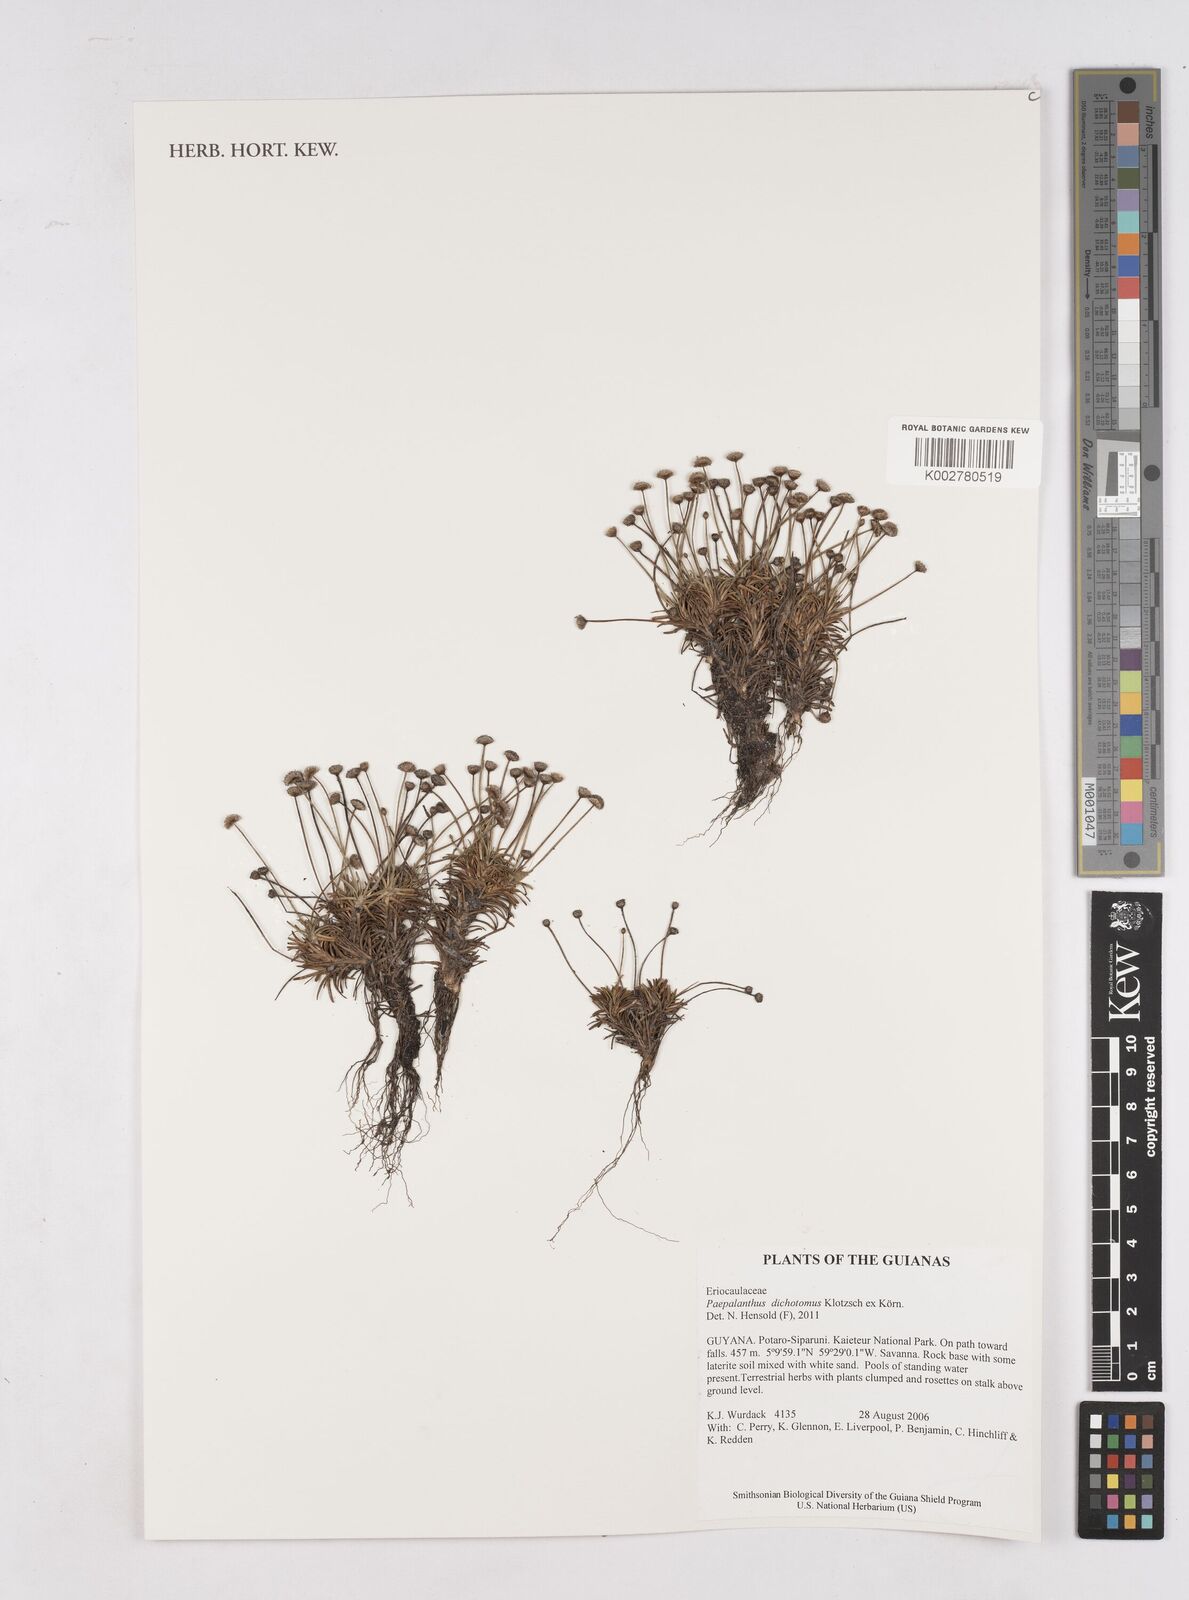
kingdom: Plantae
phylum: Tracheophyta
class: Liliopsida
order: Poales
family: Eriocaulaceae
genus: Paepalanthus
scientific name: Paepalanthus dichotomus
